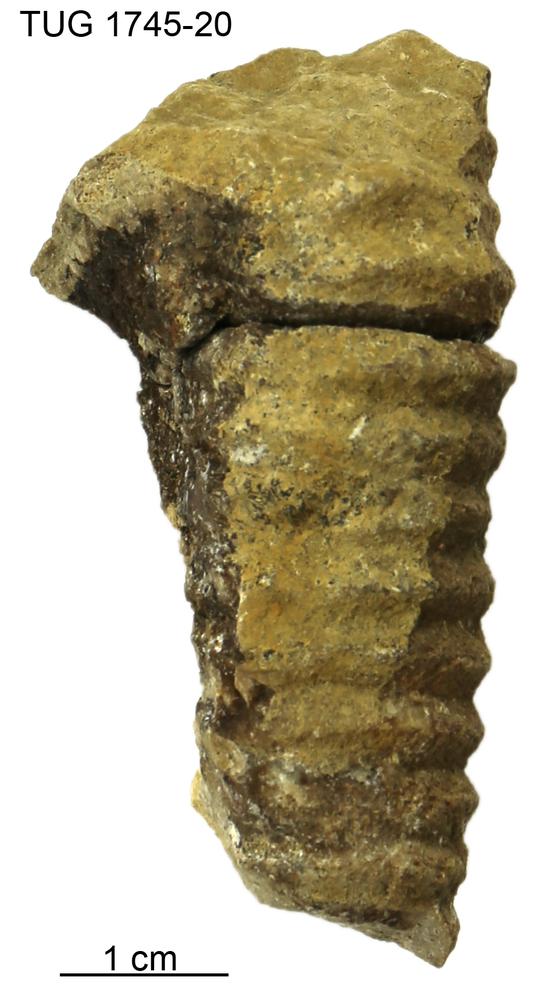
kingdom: Animalia
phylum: Mollusca
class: Cephalopoda
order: Nautilida
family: Nautilidae
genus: Dawsonoceras
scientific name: Dawsonoceras
